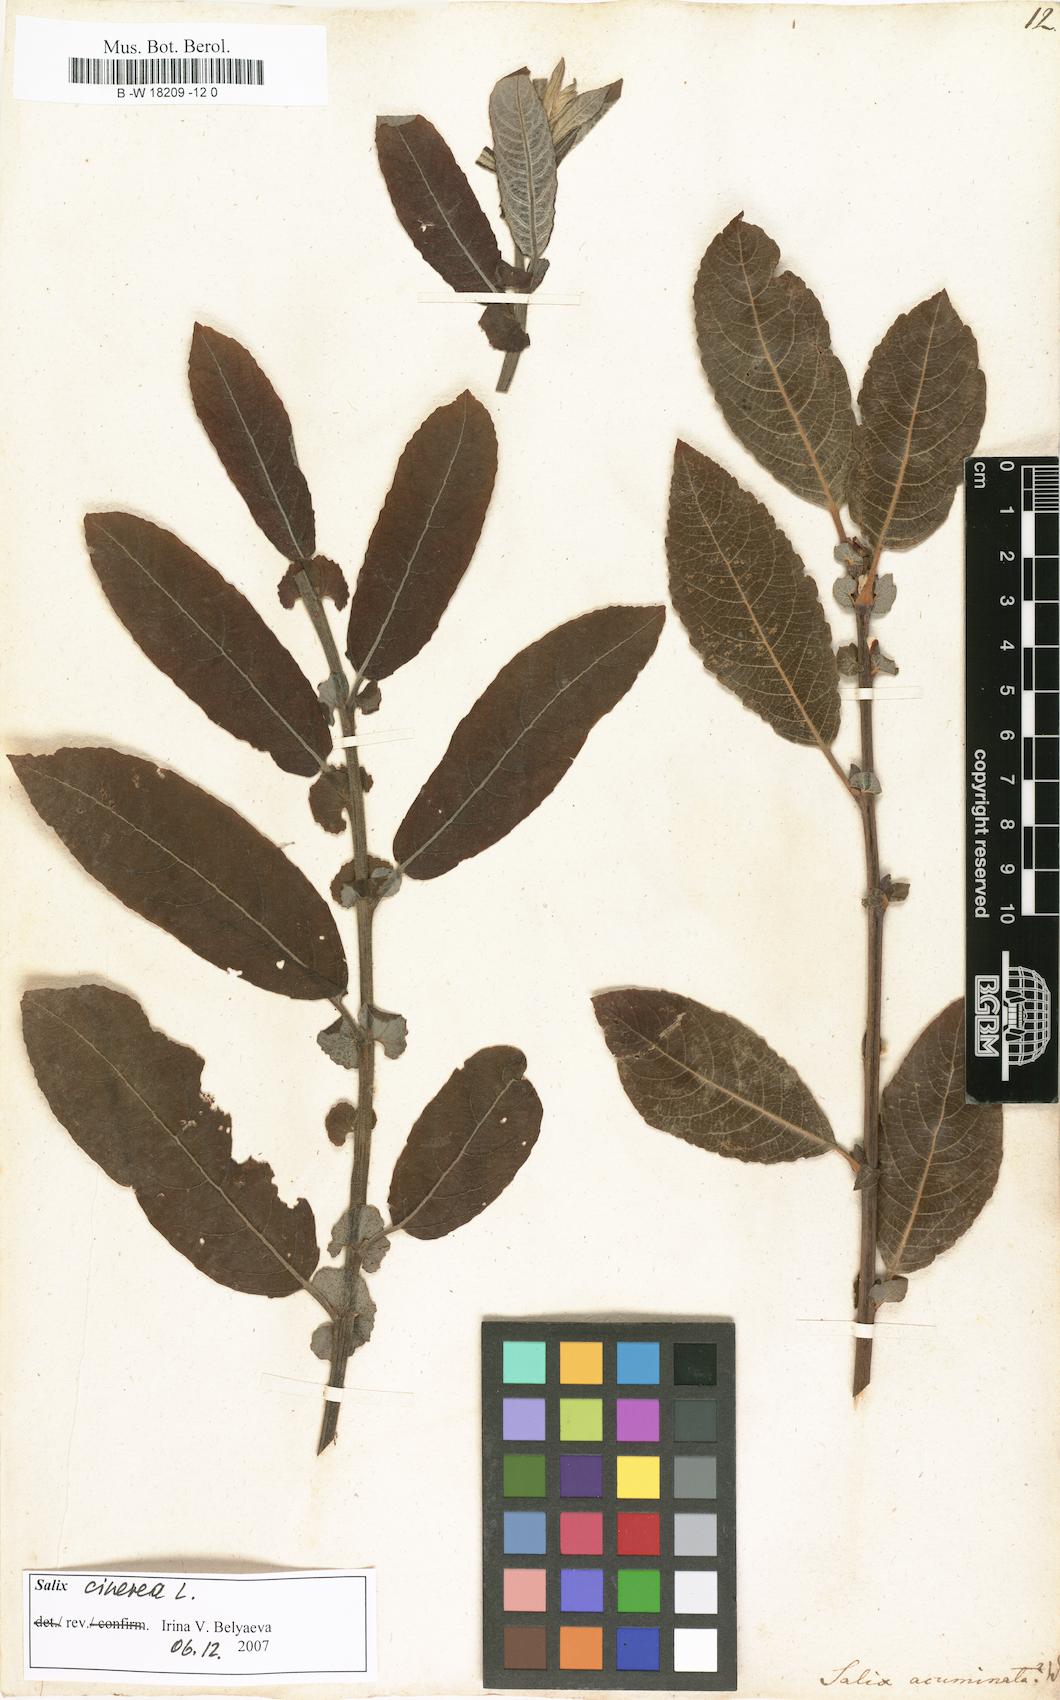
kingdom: Plantae
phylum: Tracheophyta
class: Magnoliopsida
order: Malpighiales
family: Salicaceae
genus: Salix
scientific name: Salix
